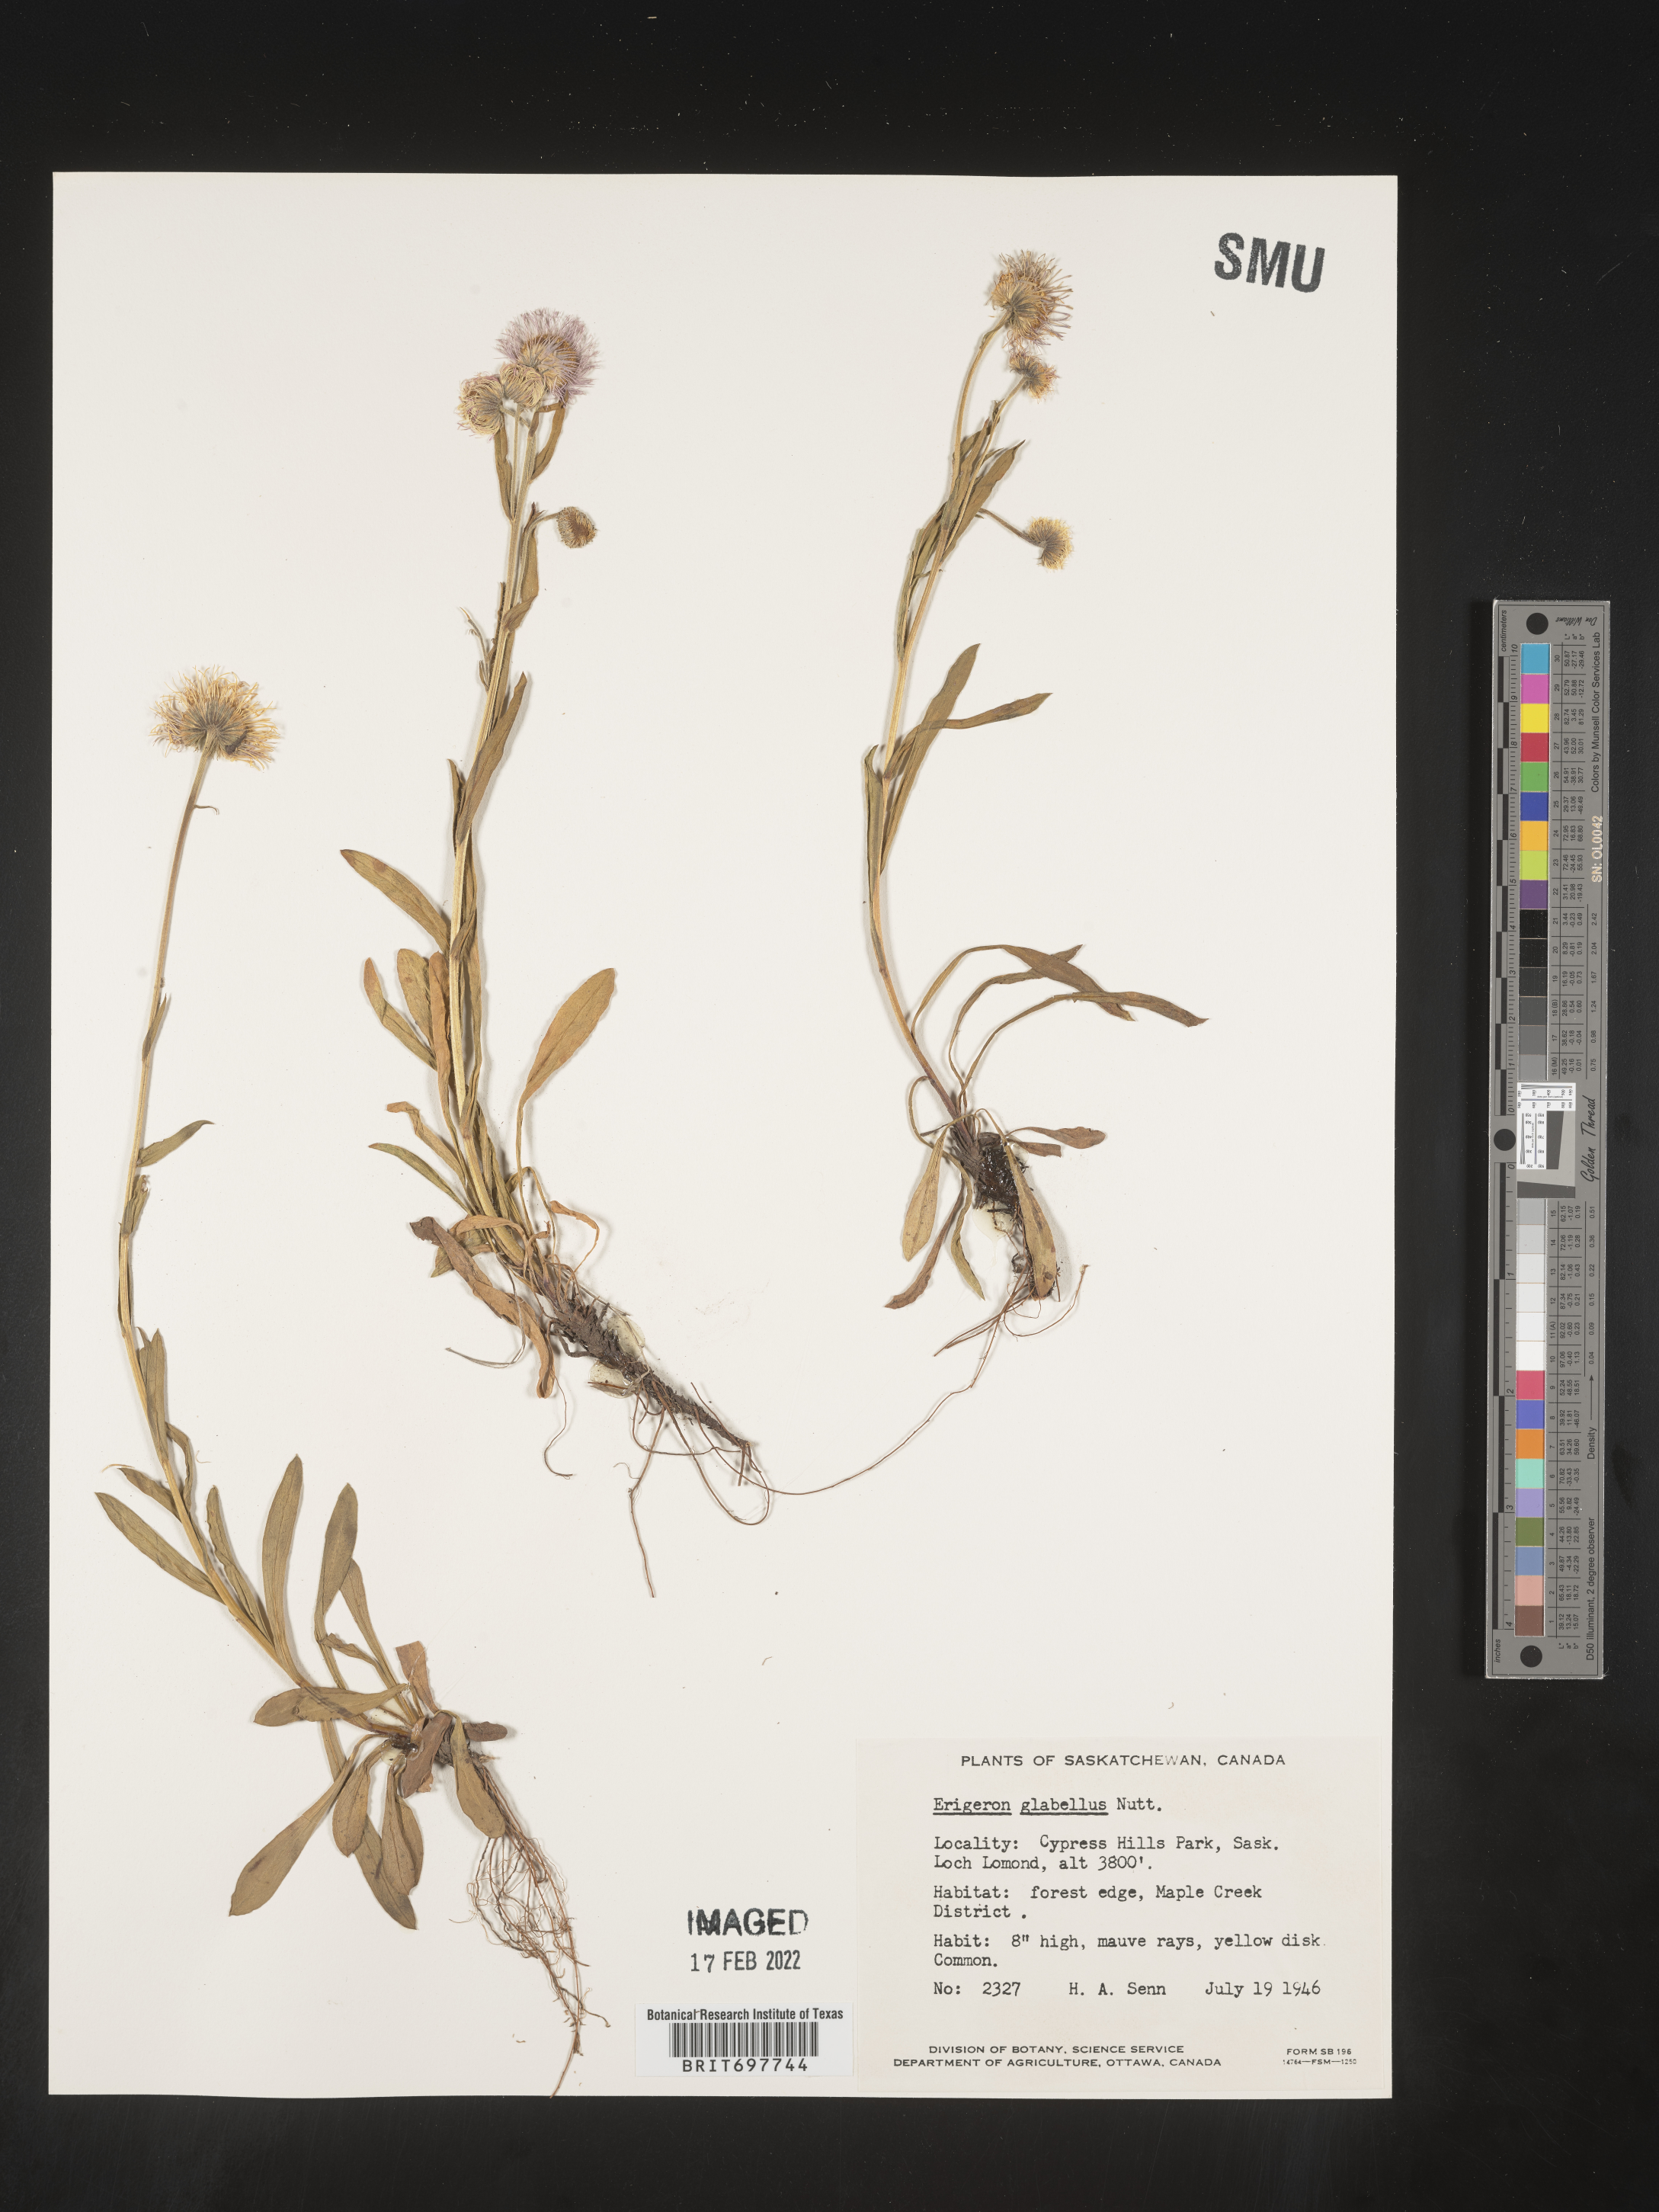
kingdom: Plantae
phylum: Tracheophyta
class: Magnoliopsida
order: Asterales
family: Asteraceae
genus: Erigeron
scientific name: Erigeron glabellus
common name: Smooth fleabane
